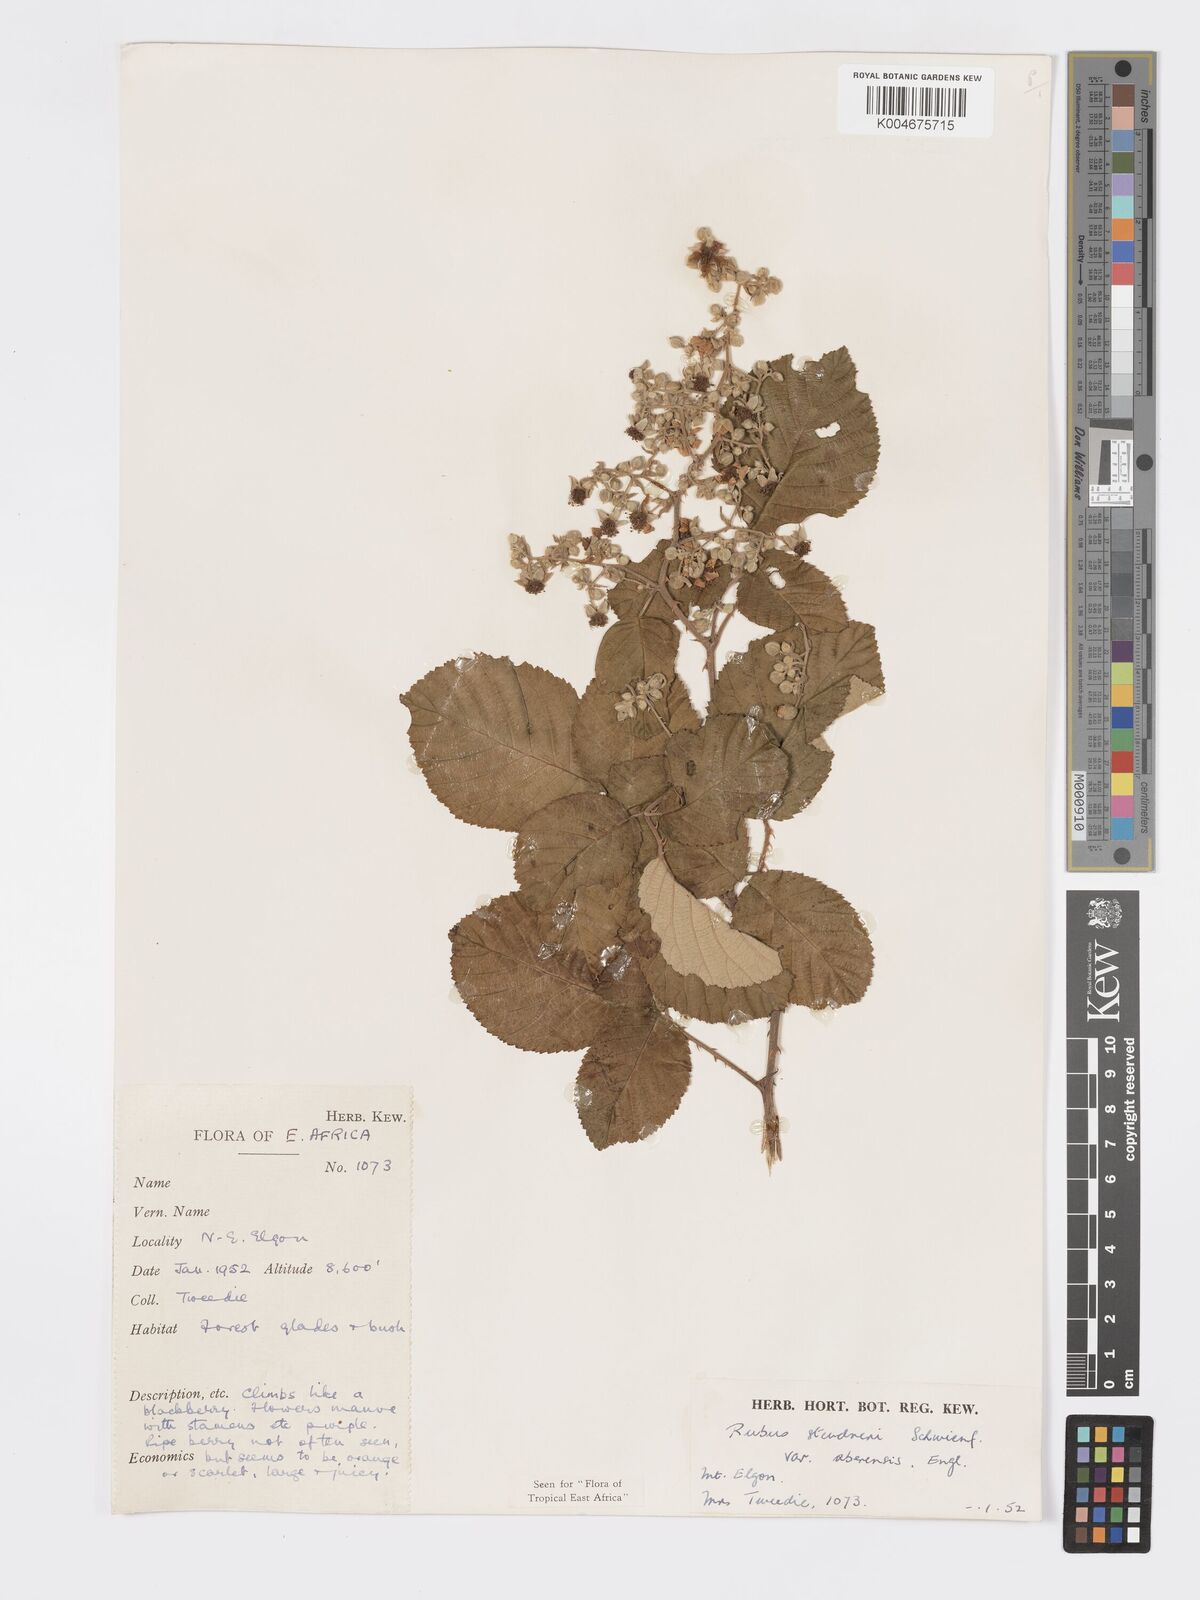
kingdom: Plantae
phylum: Tracheophyta
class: Magnoliopsida
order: Rosales
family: Rosaceae
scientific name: Rosaceae
